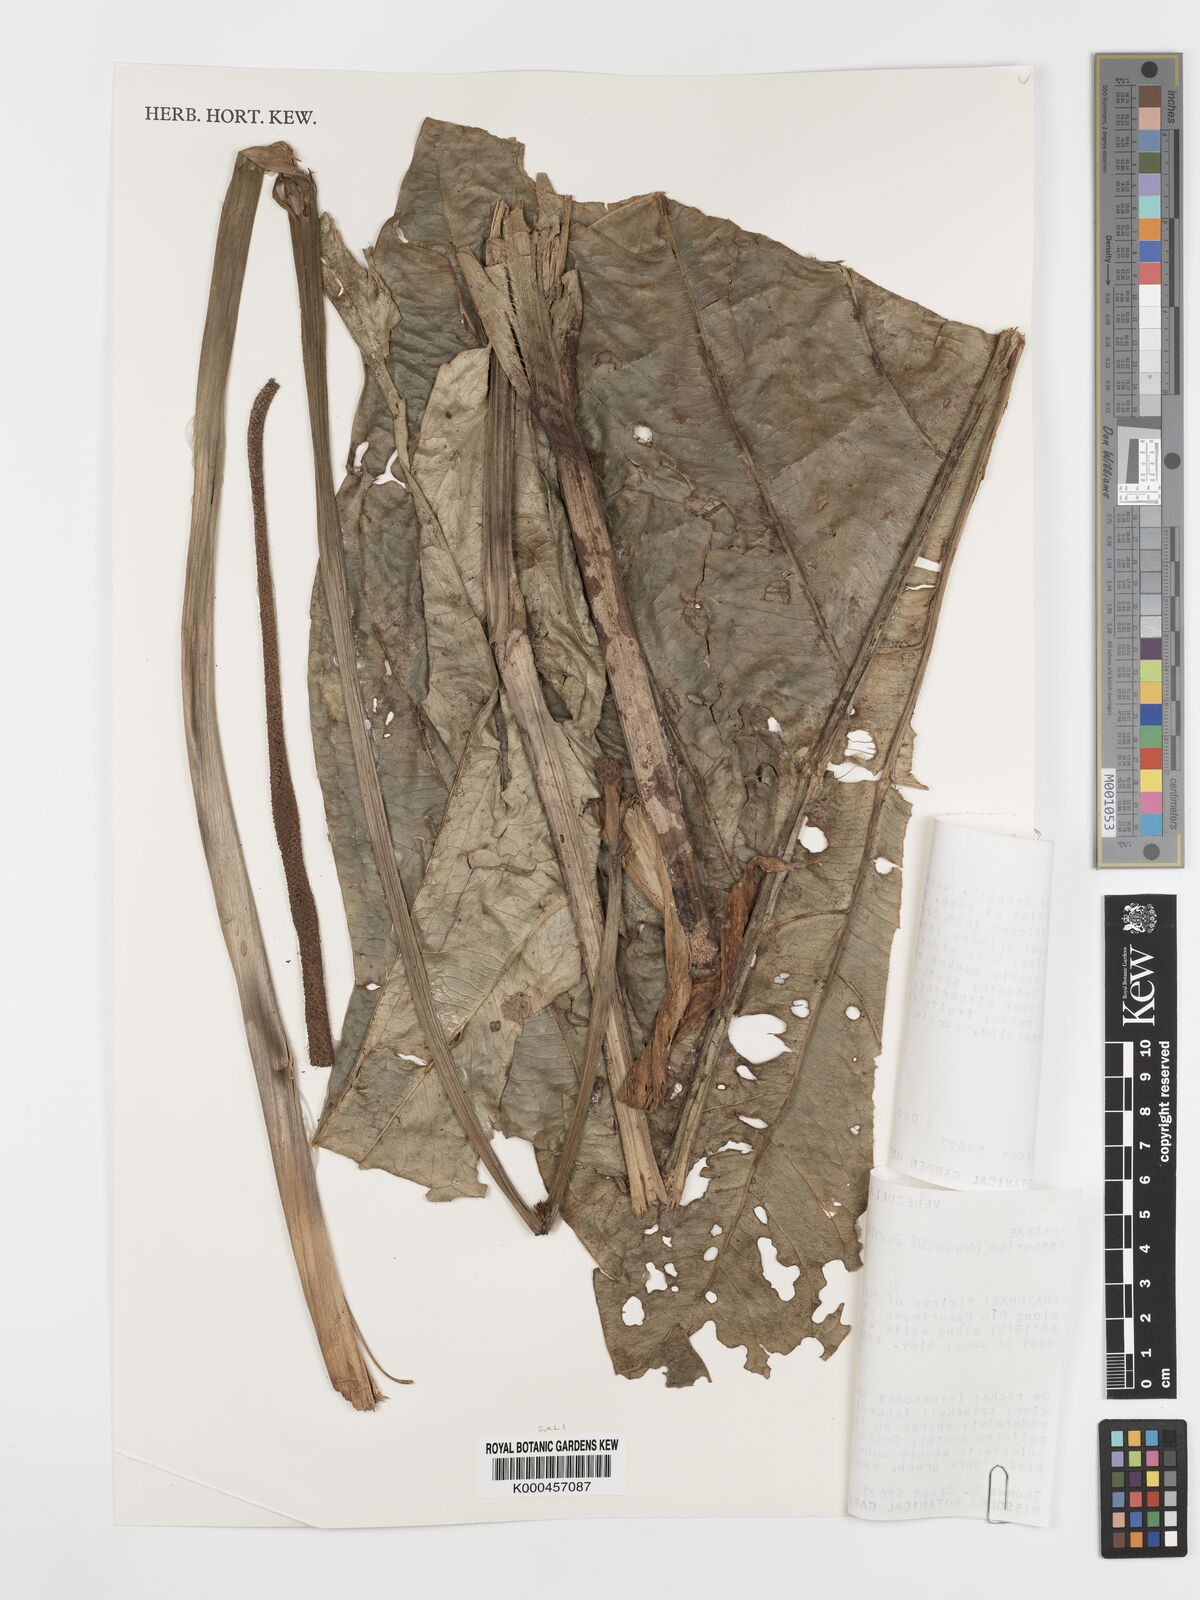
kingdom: Plantae
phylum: Tracheophyta
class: Liliopsida
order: Alismatales
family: Araceae
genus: Anthurium
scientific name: Anthurium bonplandii
